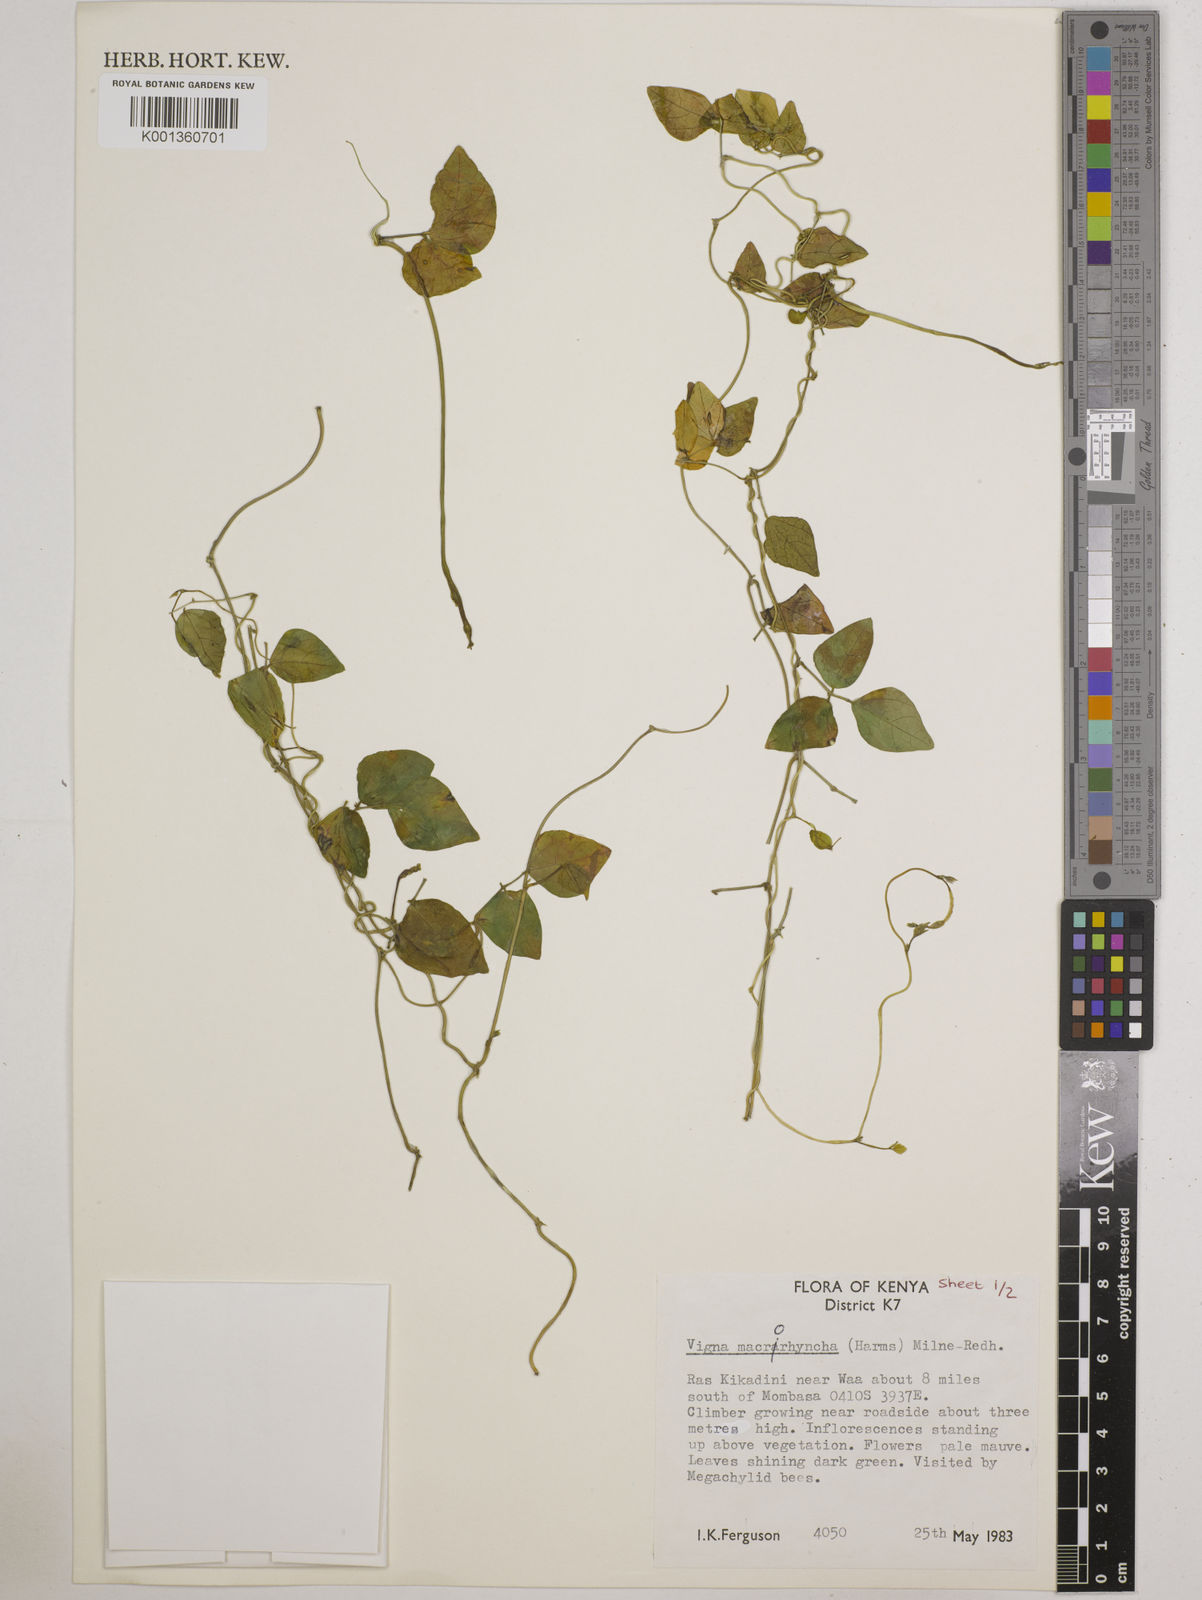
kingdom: Plantae
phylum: Tracheophyta
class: Magnoliopsida
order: Fabales
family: Fabaceae
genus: Wajira
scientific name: Wajira grahamiana
